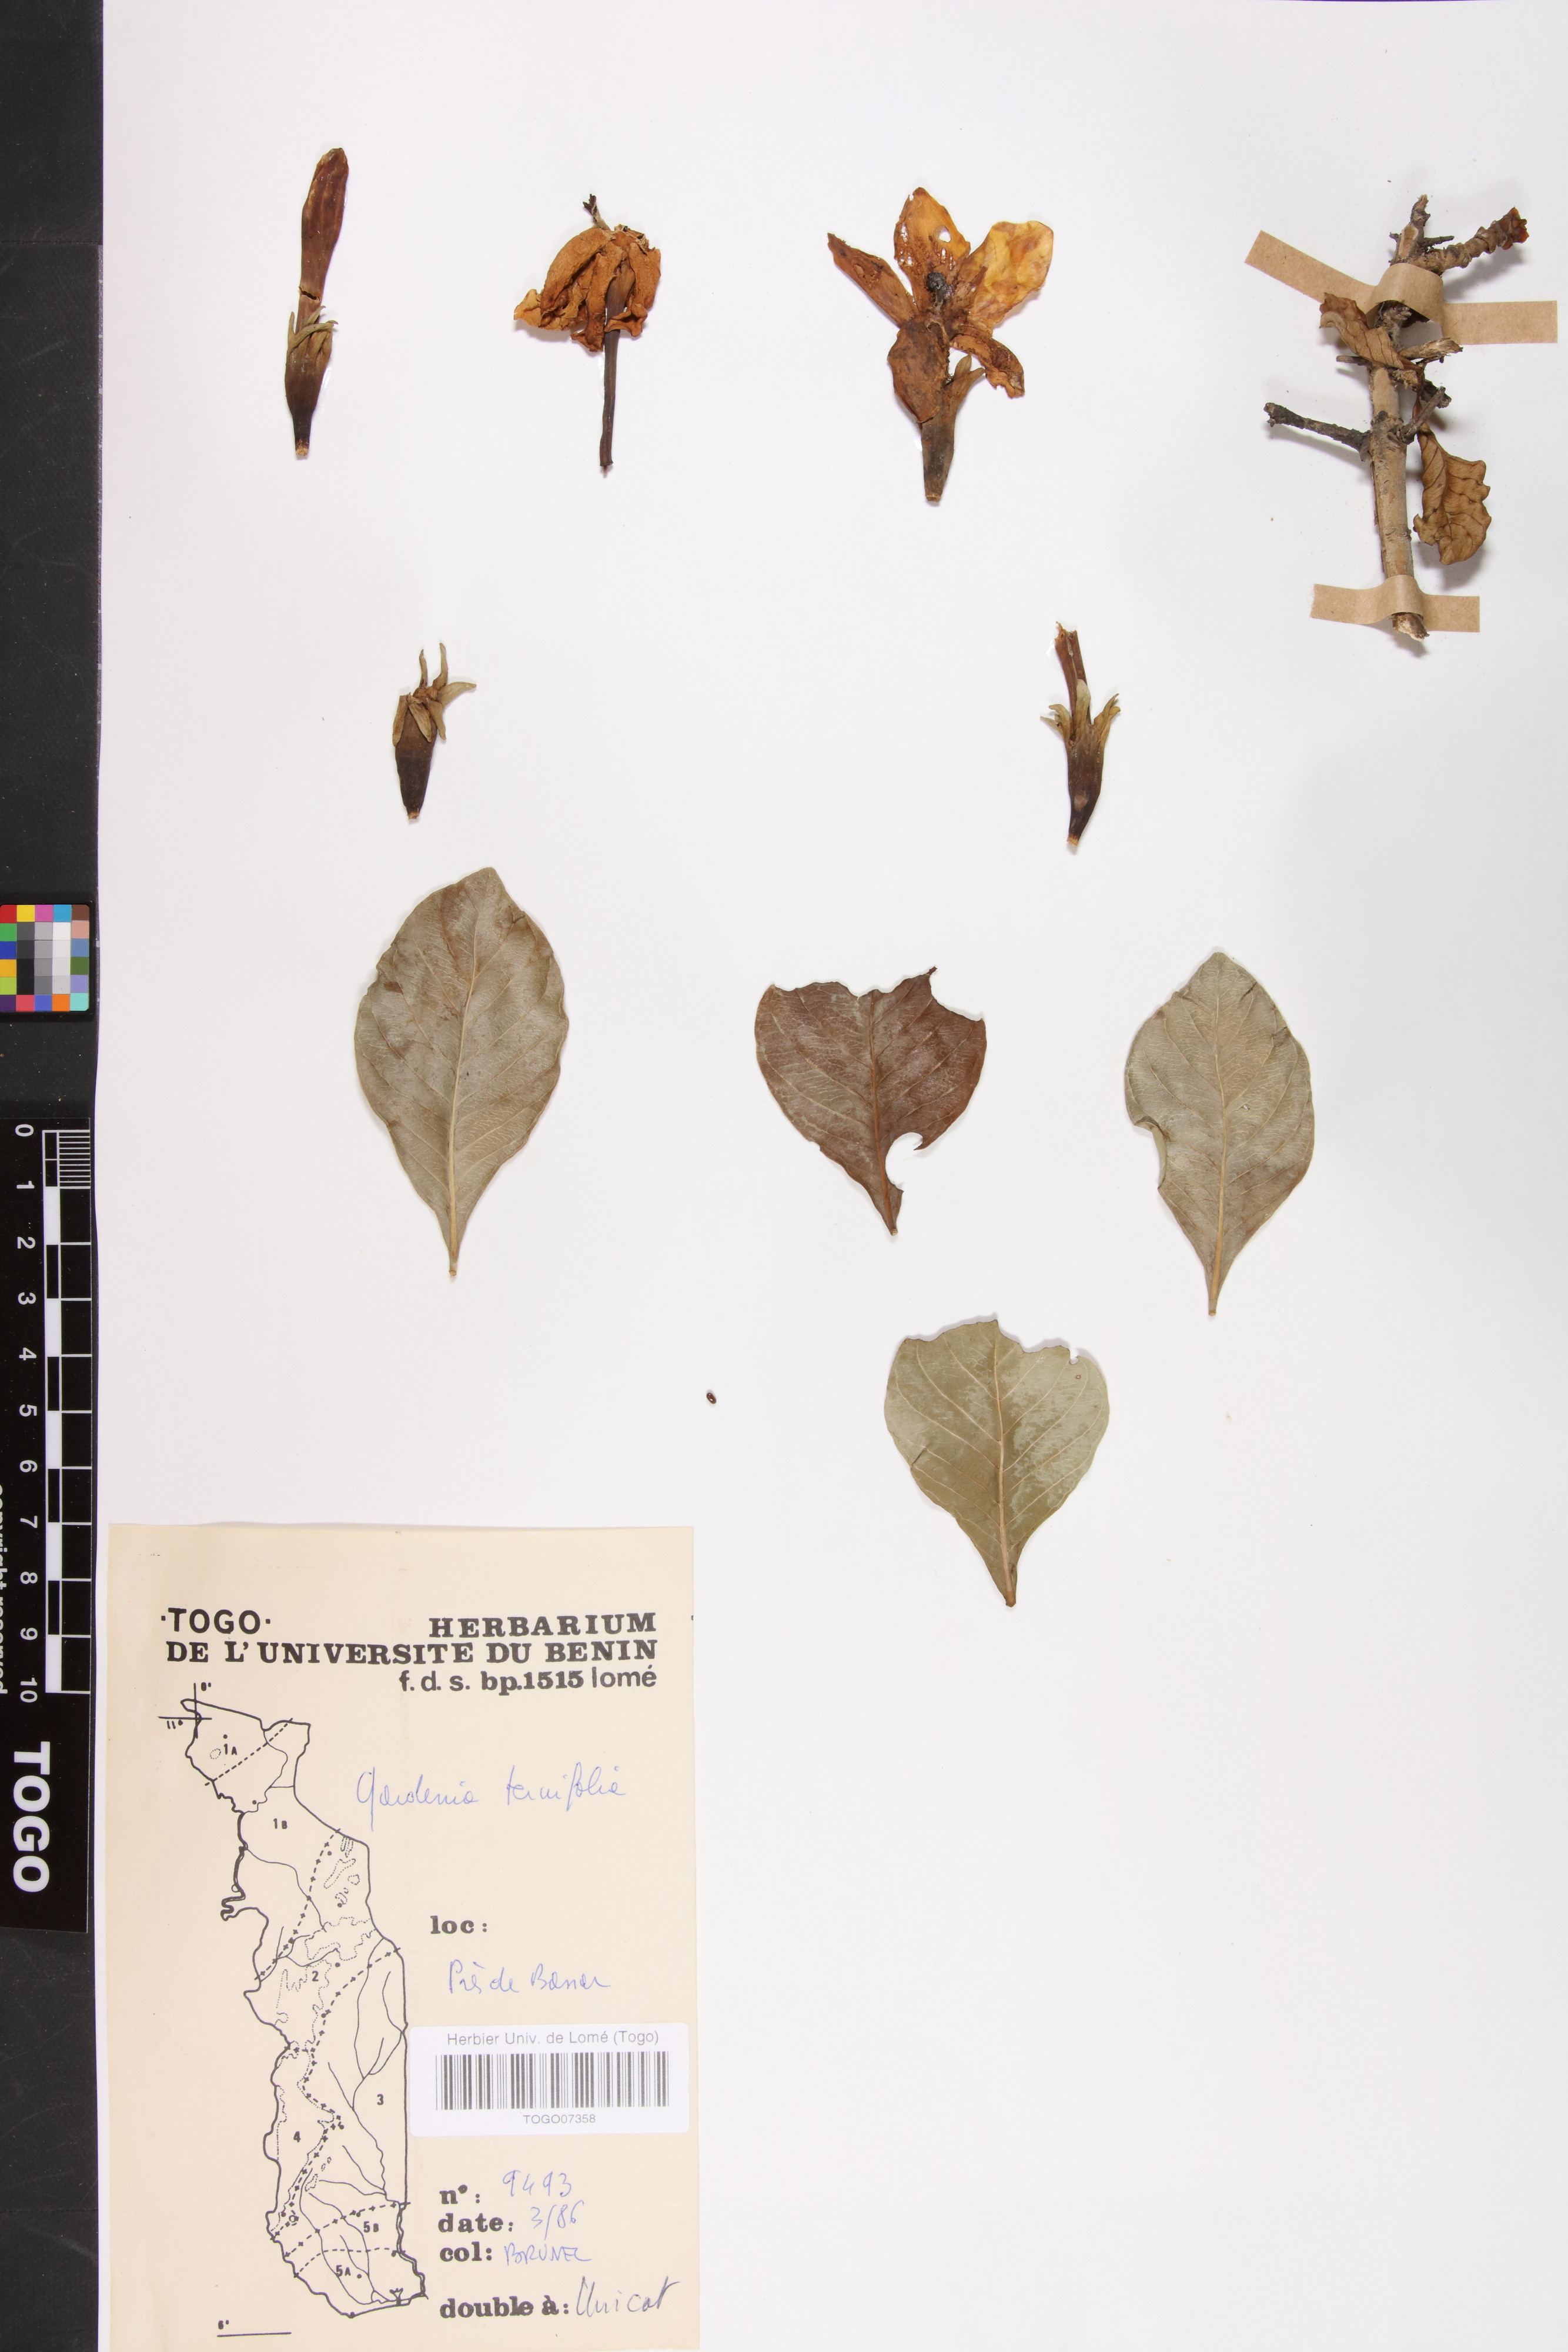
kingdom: Plantae
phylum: Tracheophyta
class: Magnoliopsida
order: Gentianales
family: Rubiaceae
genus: Gardenia
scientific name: Gardenia ternifolia
